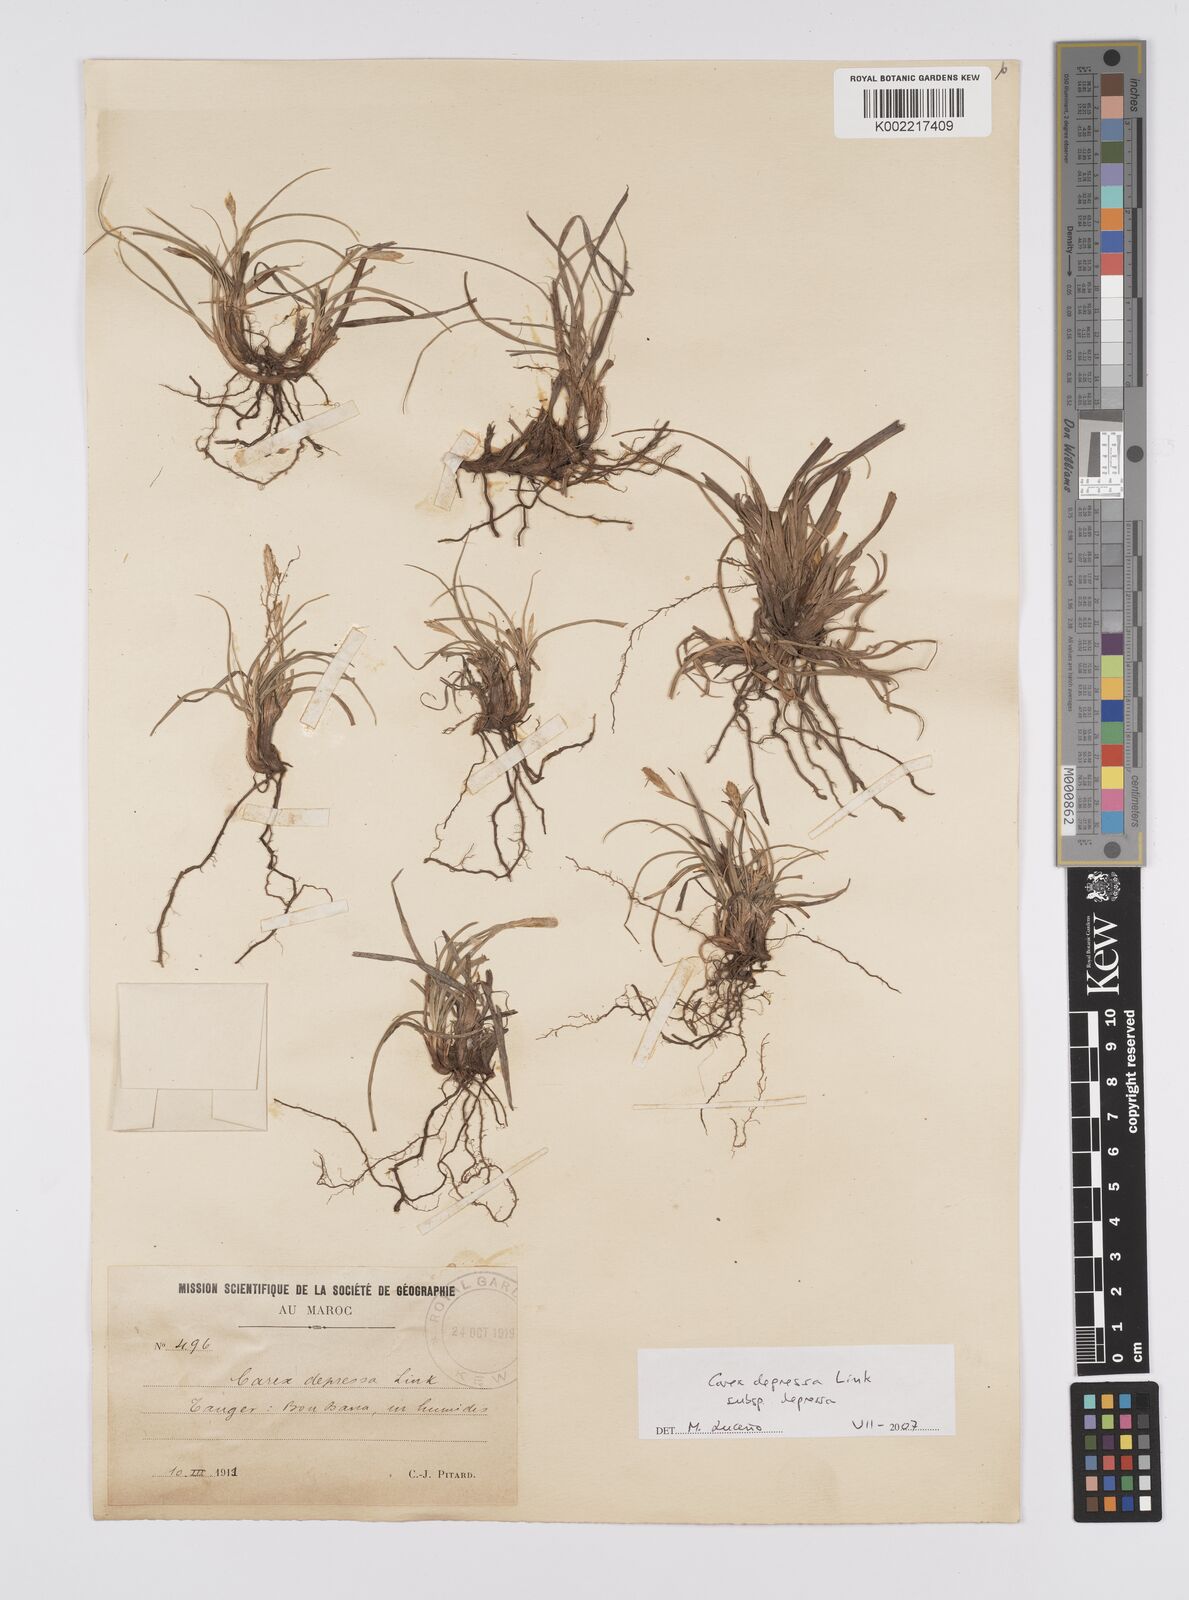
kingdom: Plantae
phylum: Tracheophyta
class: Liliopsida
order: Poales
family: Cyperaceae
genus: Carex
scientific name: Carex depressa
